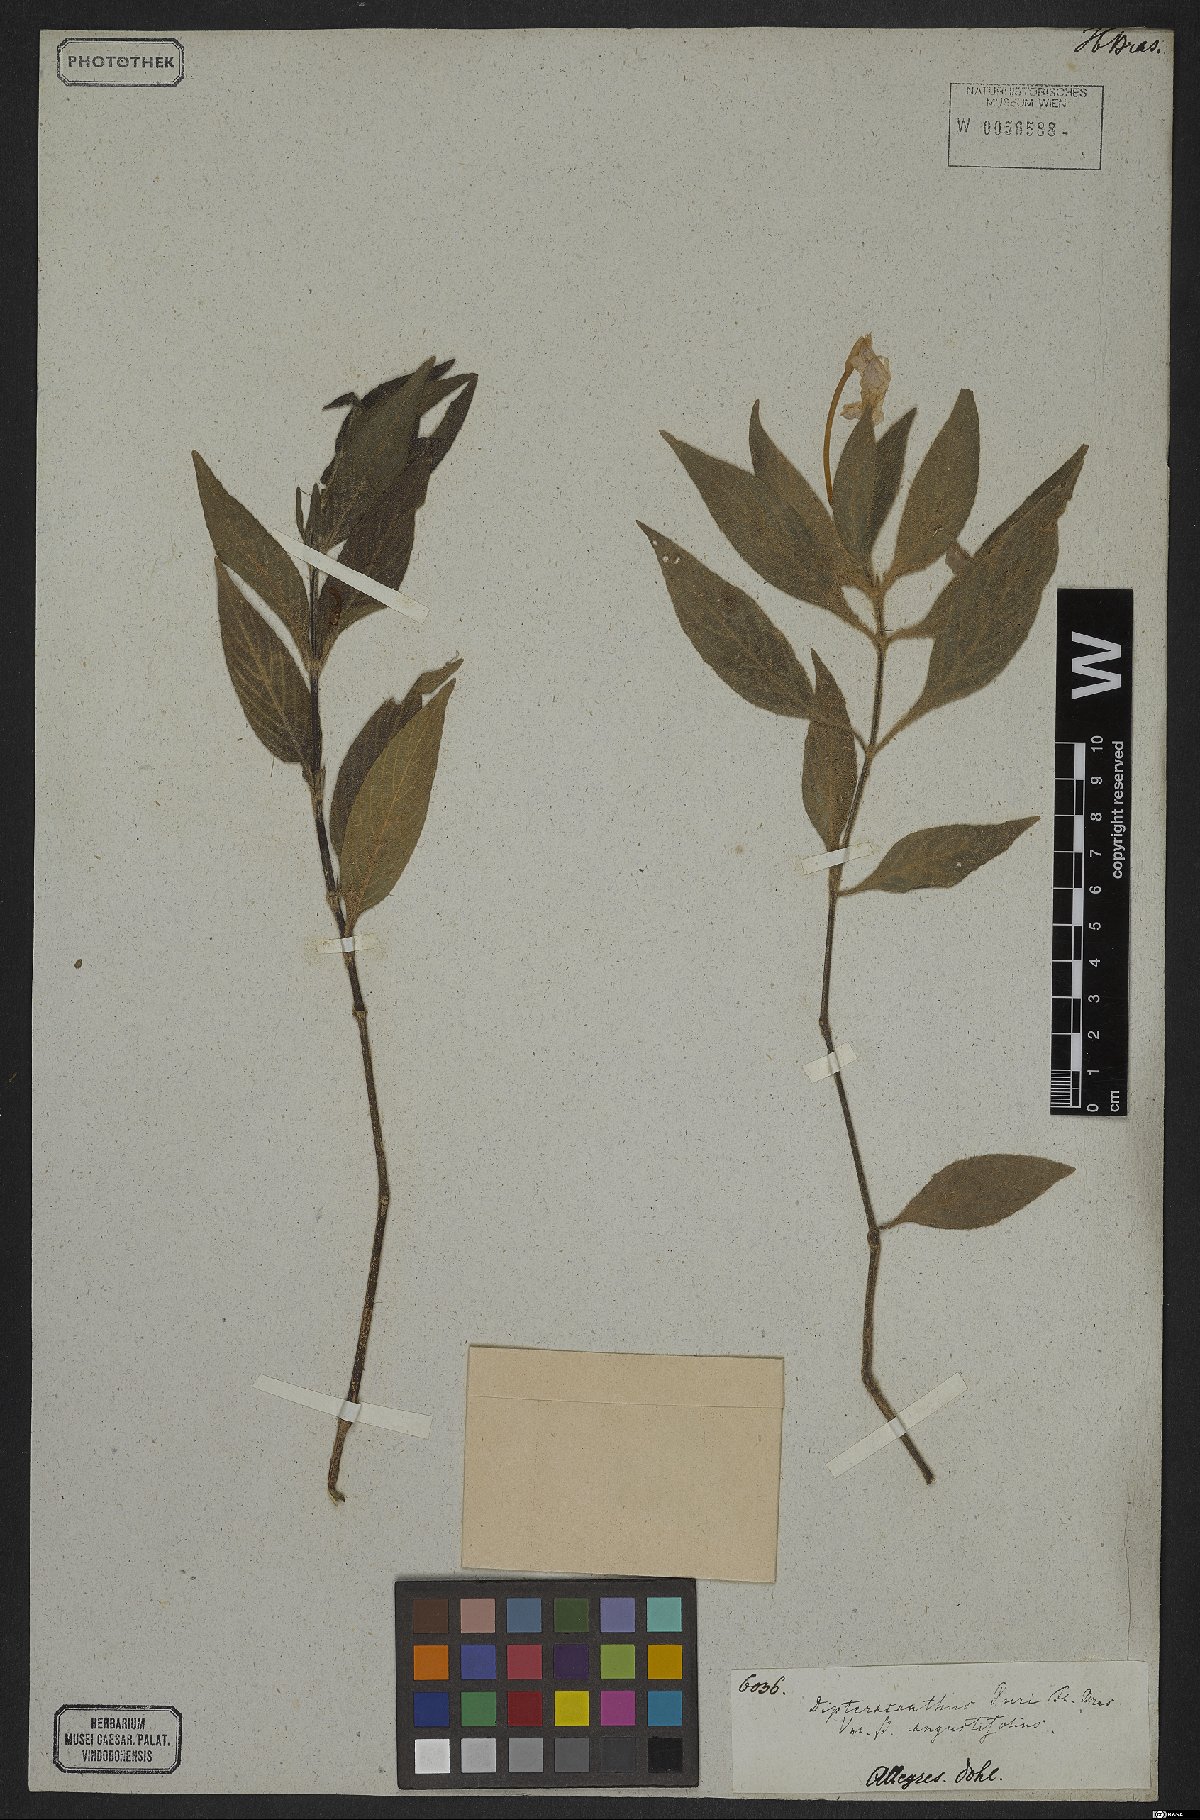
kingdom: Plantae
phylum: Tracheophyta
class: Magnoliopsida
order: Lamiales
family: Acanthaceae
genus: Ruellia
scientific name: Ruellia purii
